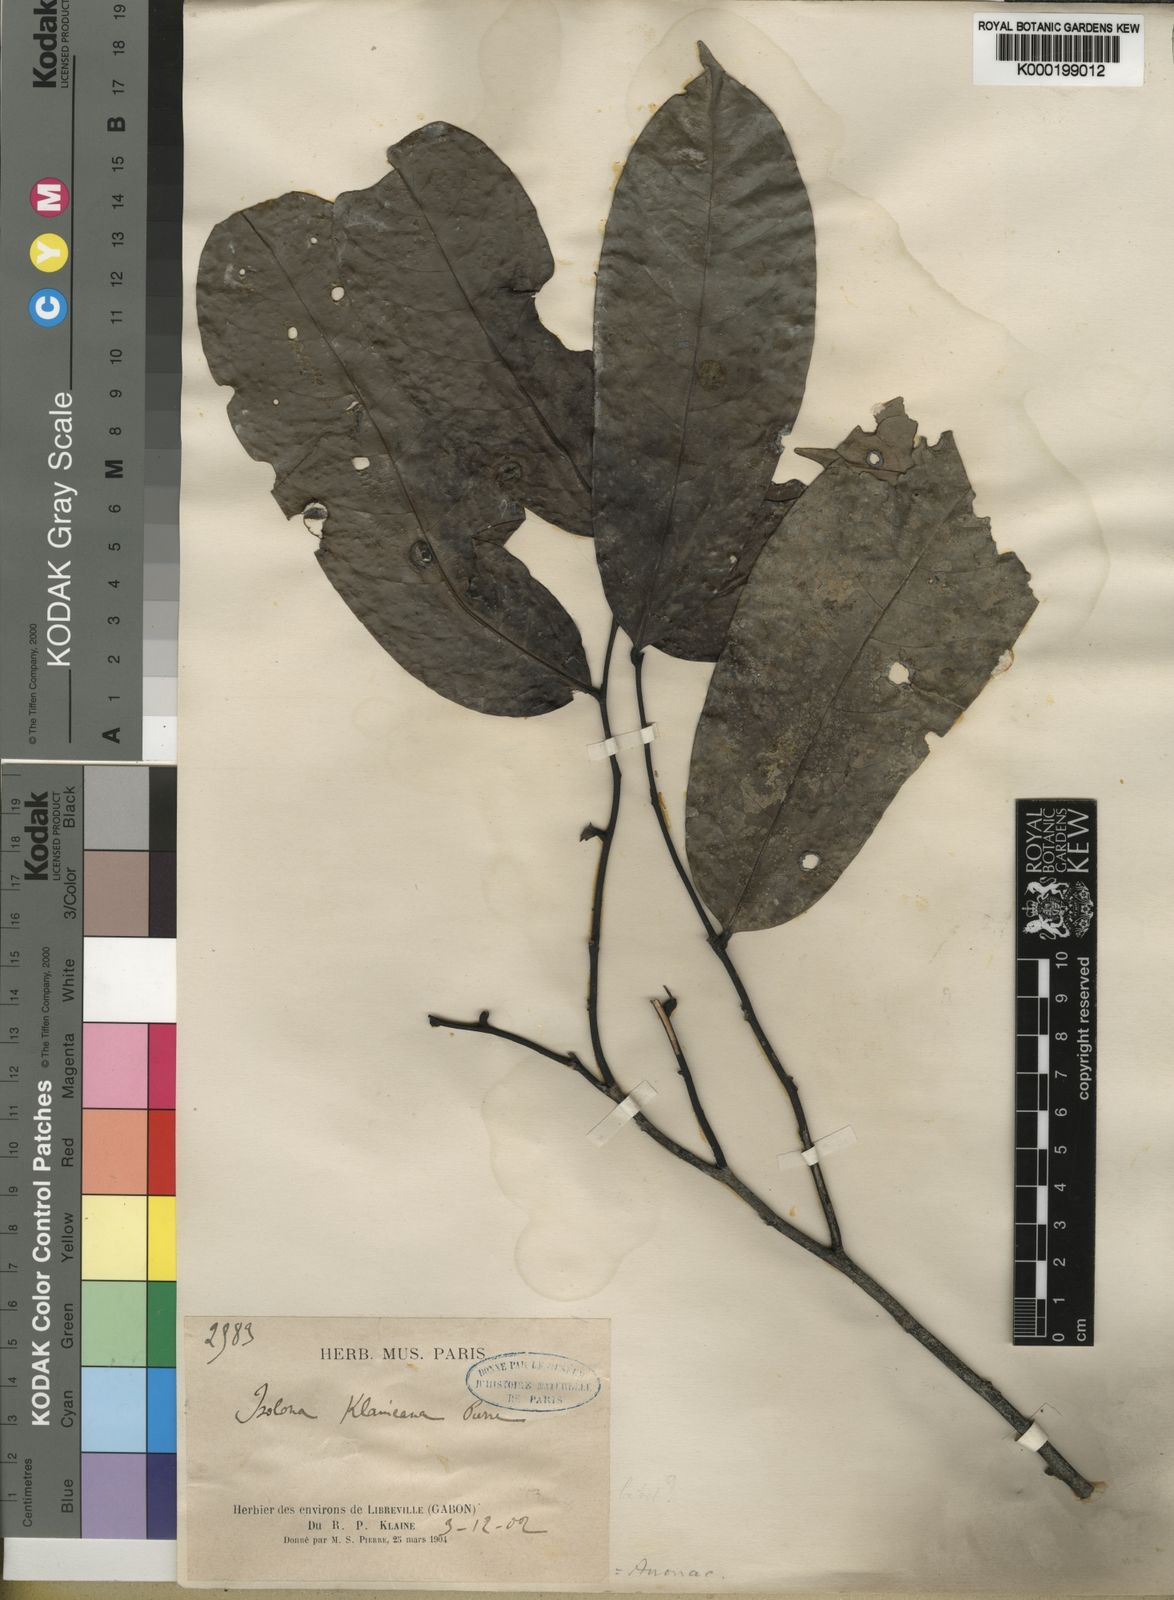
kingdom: Plantae
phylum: Tracheophyta
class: Magnoliopsida
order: Magnoliales
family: Annonaceae
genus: Isolona
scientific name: Isolona
